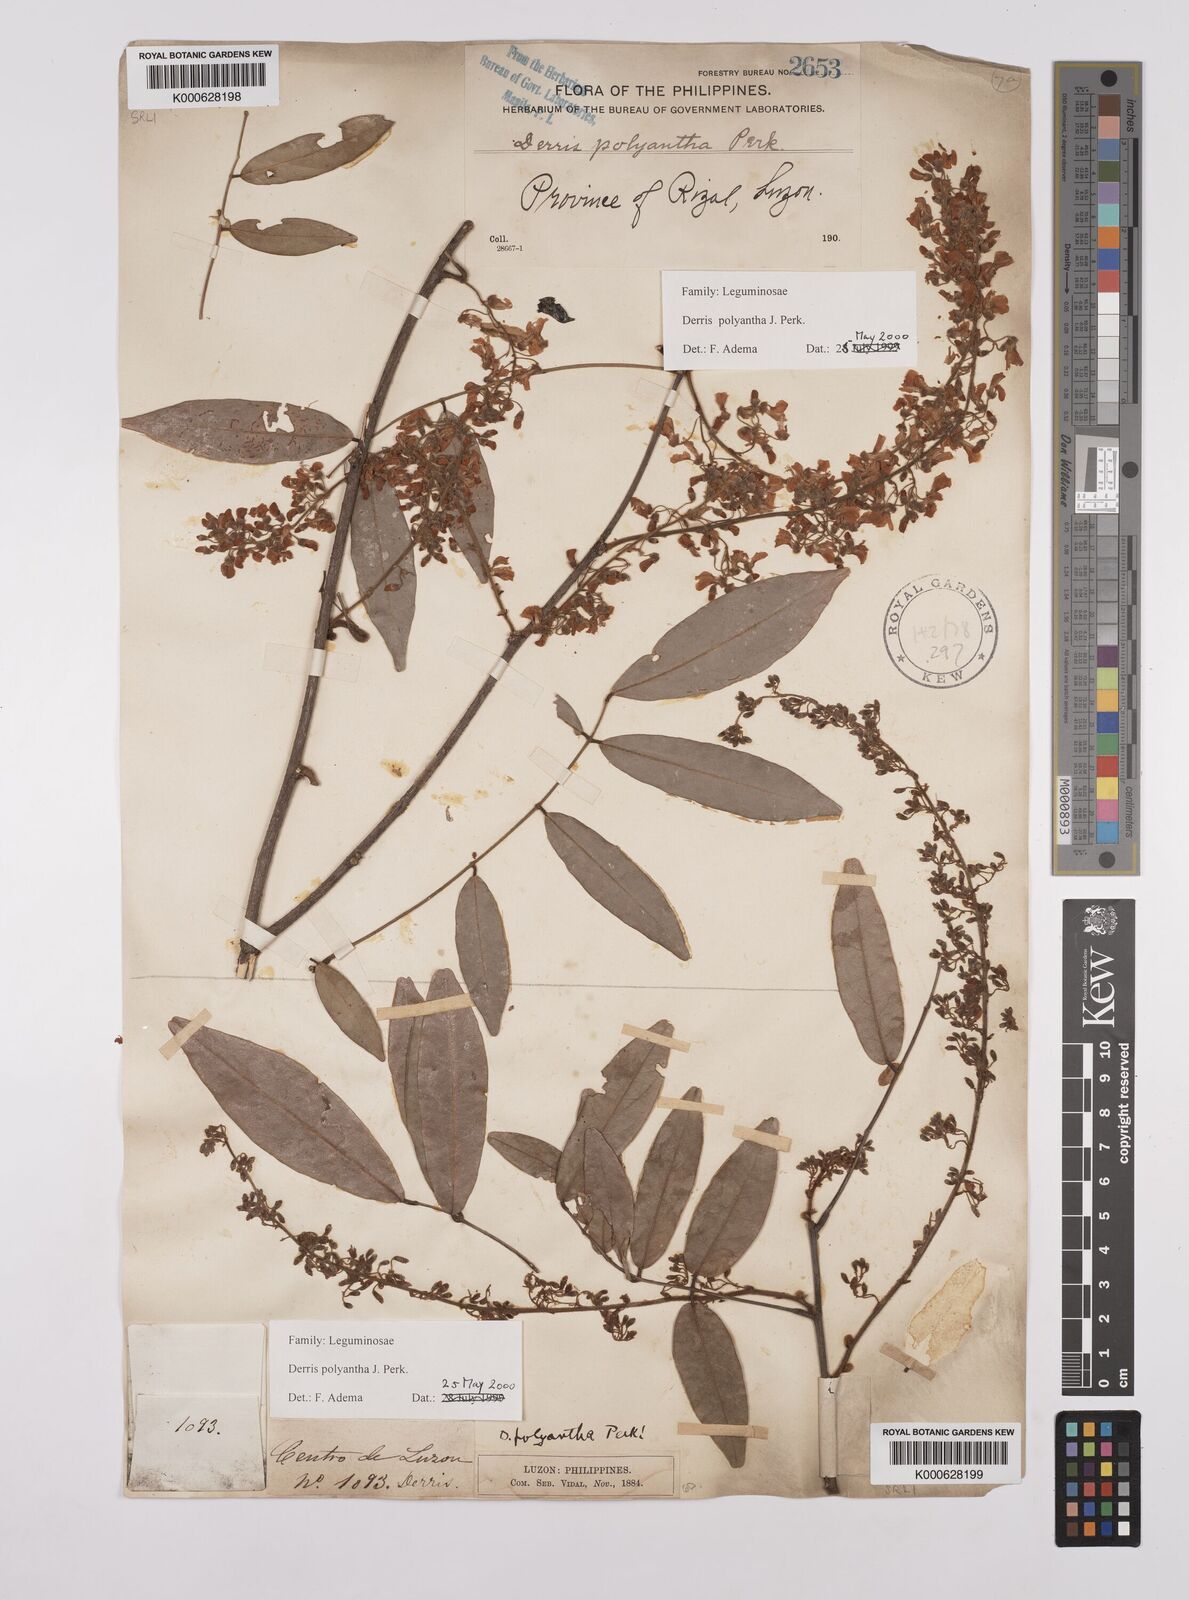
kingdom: Plantae
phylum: Tracheophyta
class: Magnoliopsida
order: Fabales
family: Fabaceae
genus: Derris
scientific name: Derris polyantha
